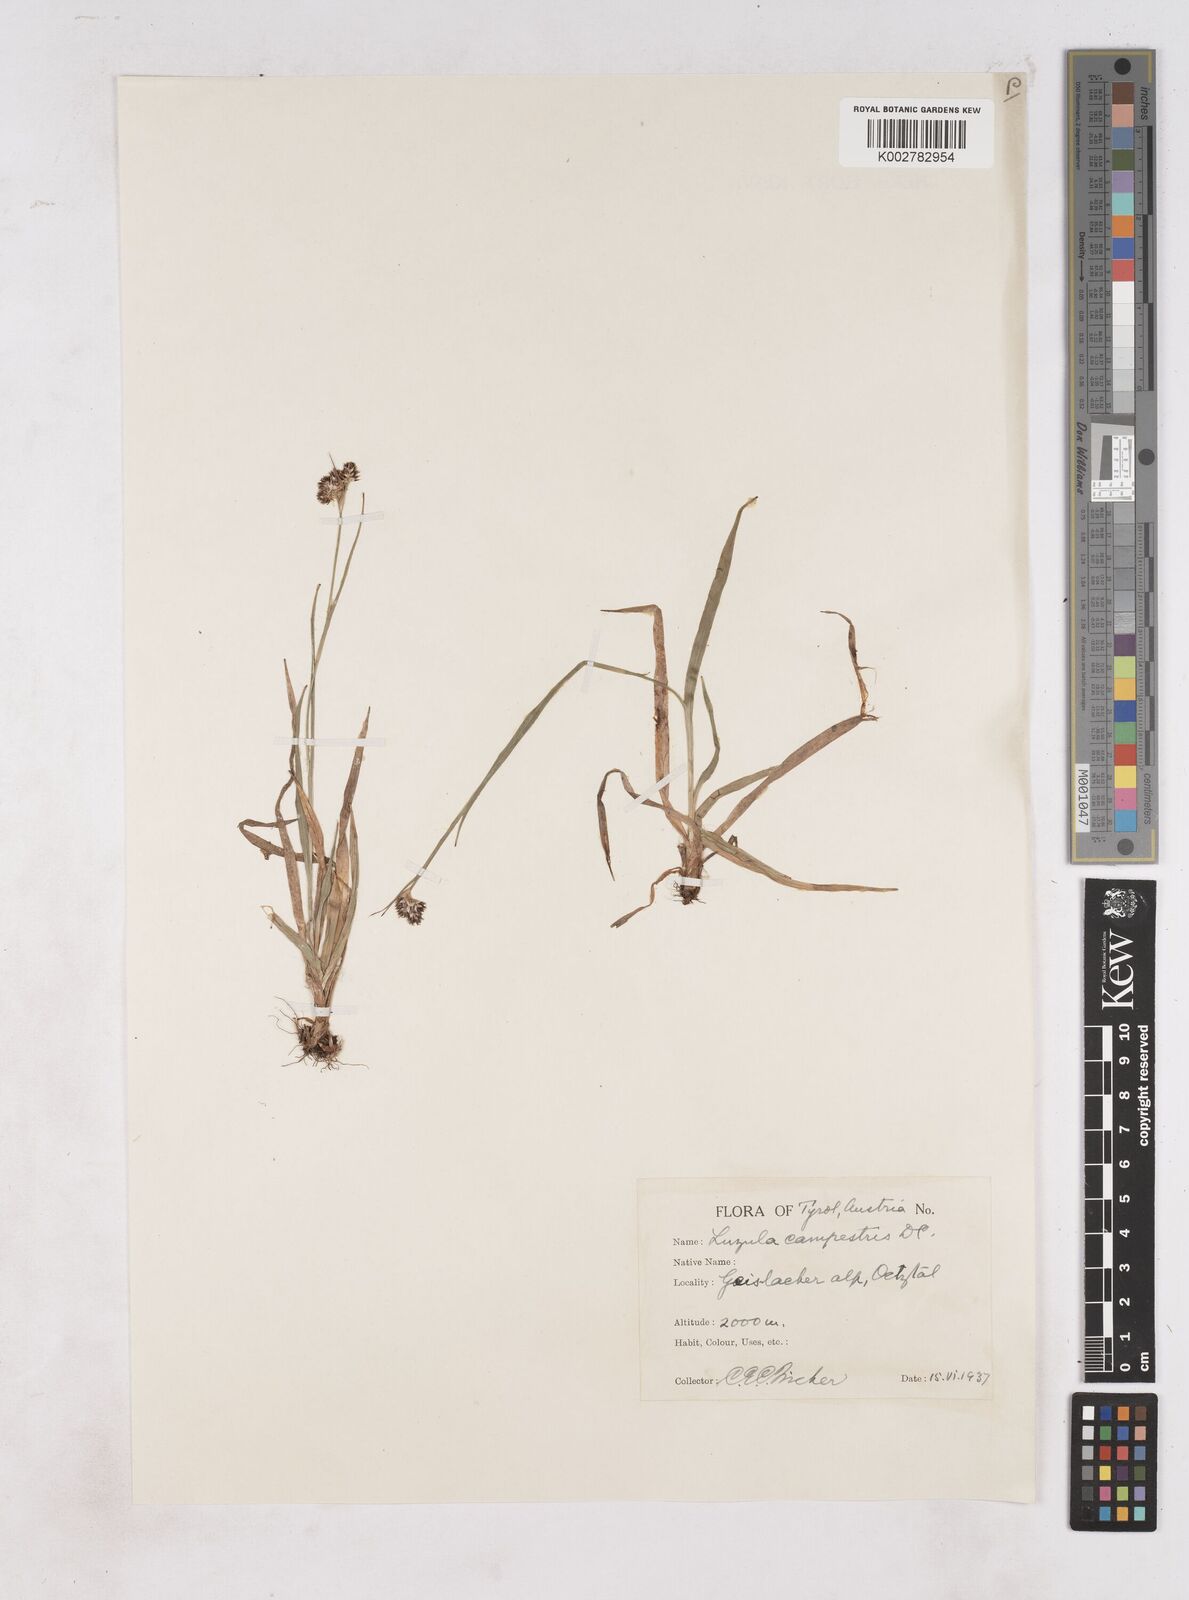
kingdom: Plantae
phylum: Tracheophyta
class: Liliopsida
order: Poales
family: Juncaceae
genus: Luzula
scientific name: Luzula campestris
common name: Field wood-rush
